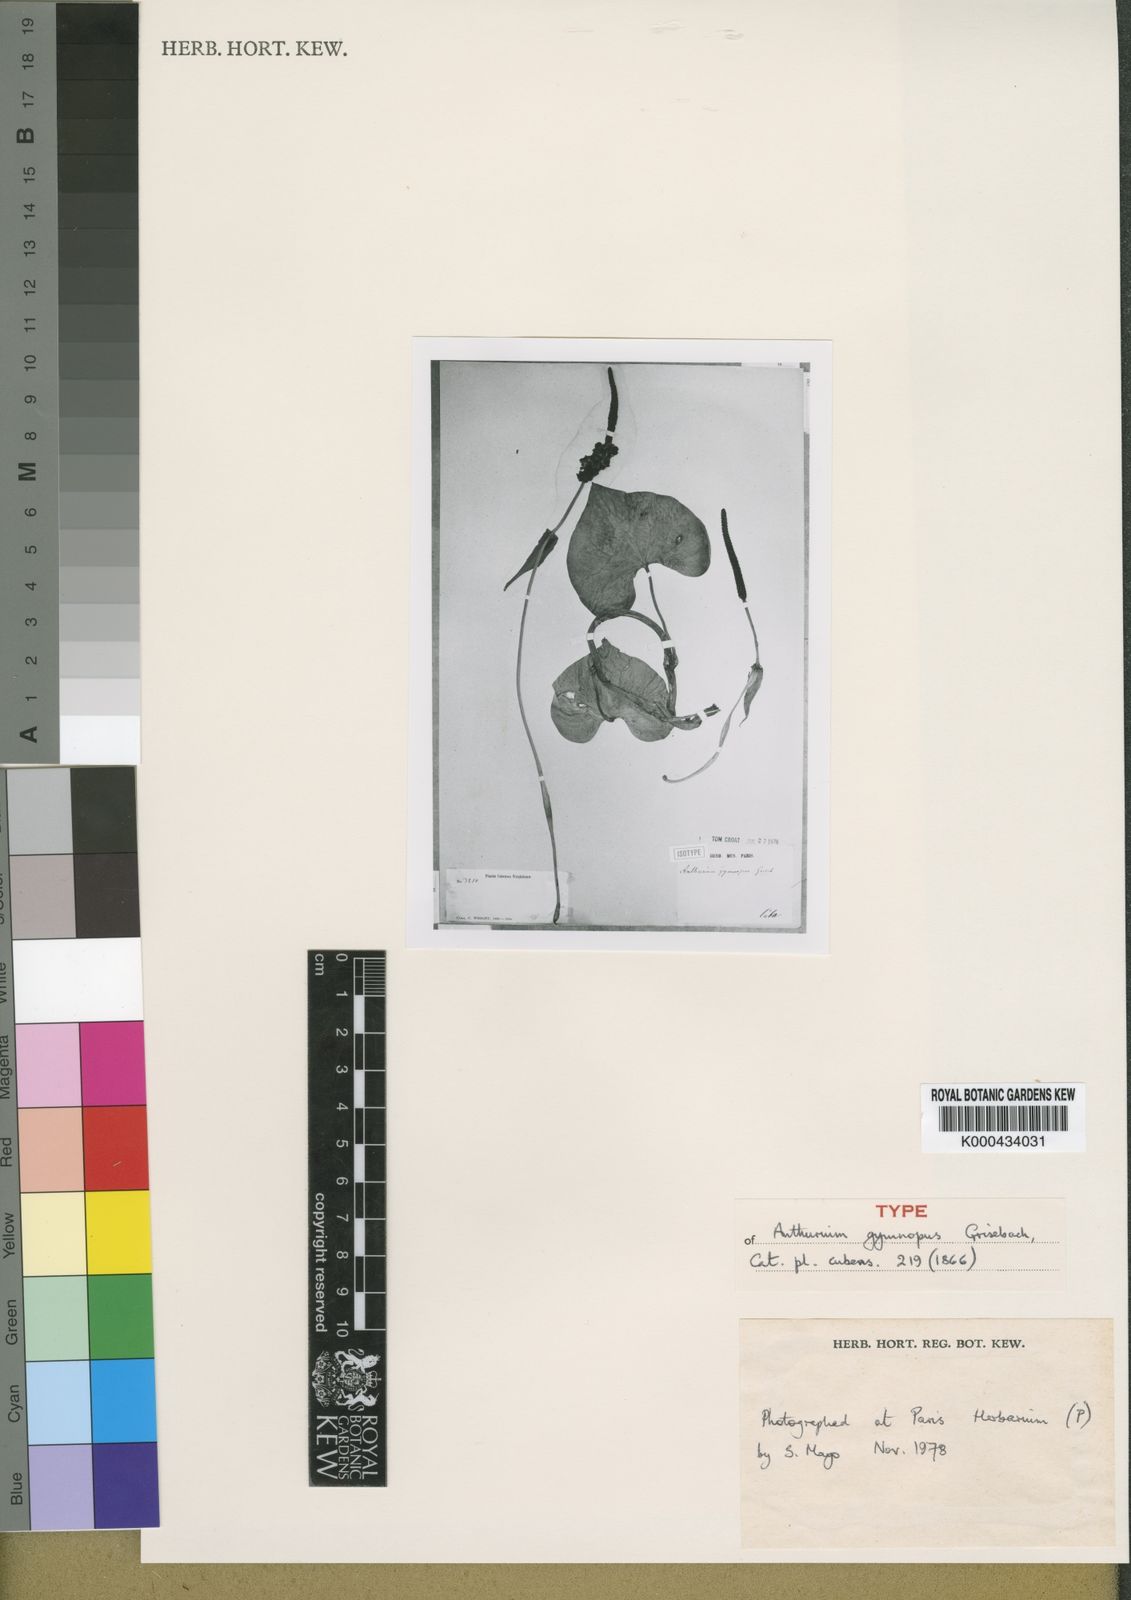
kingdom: Plantae
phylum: Tracheophyta
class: Liliopsida
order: Alismatales
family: Araceae
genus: Anthurium
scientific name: Anthurium gymnopus
